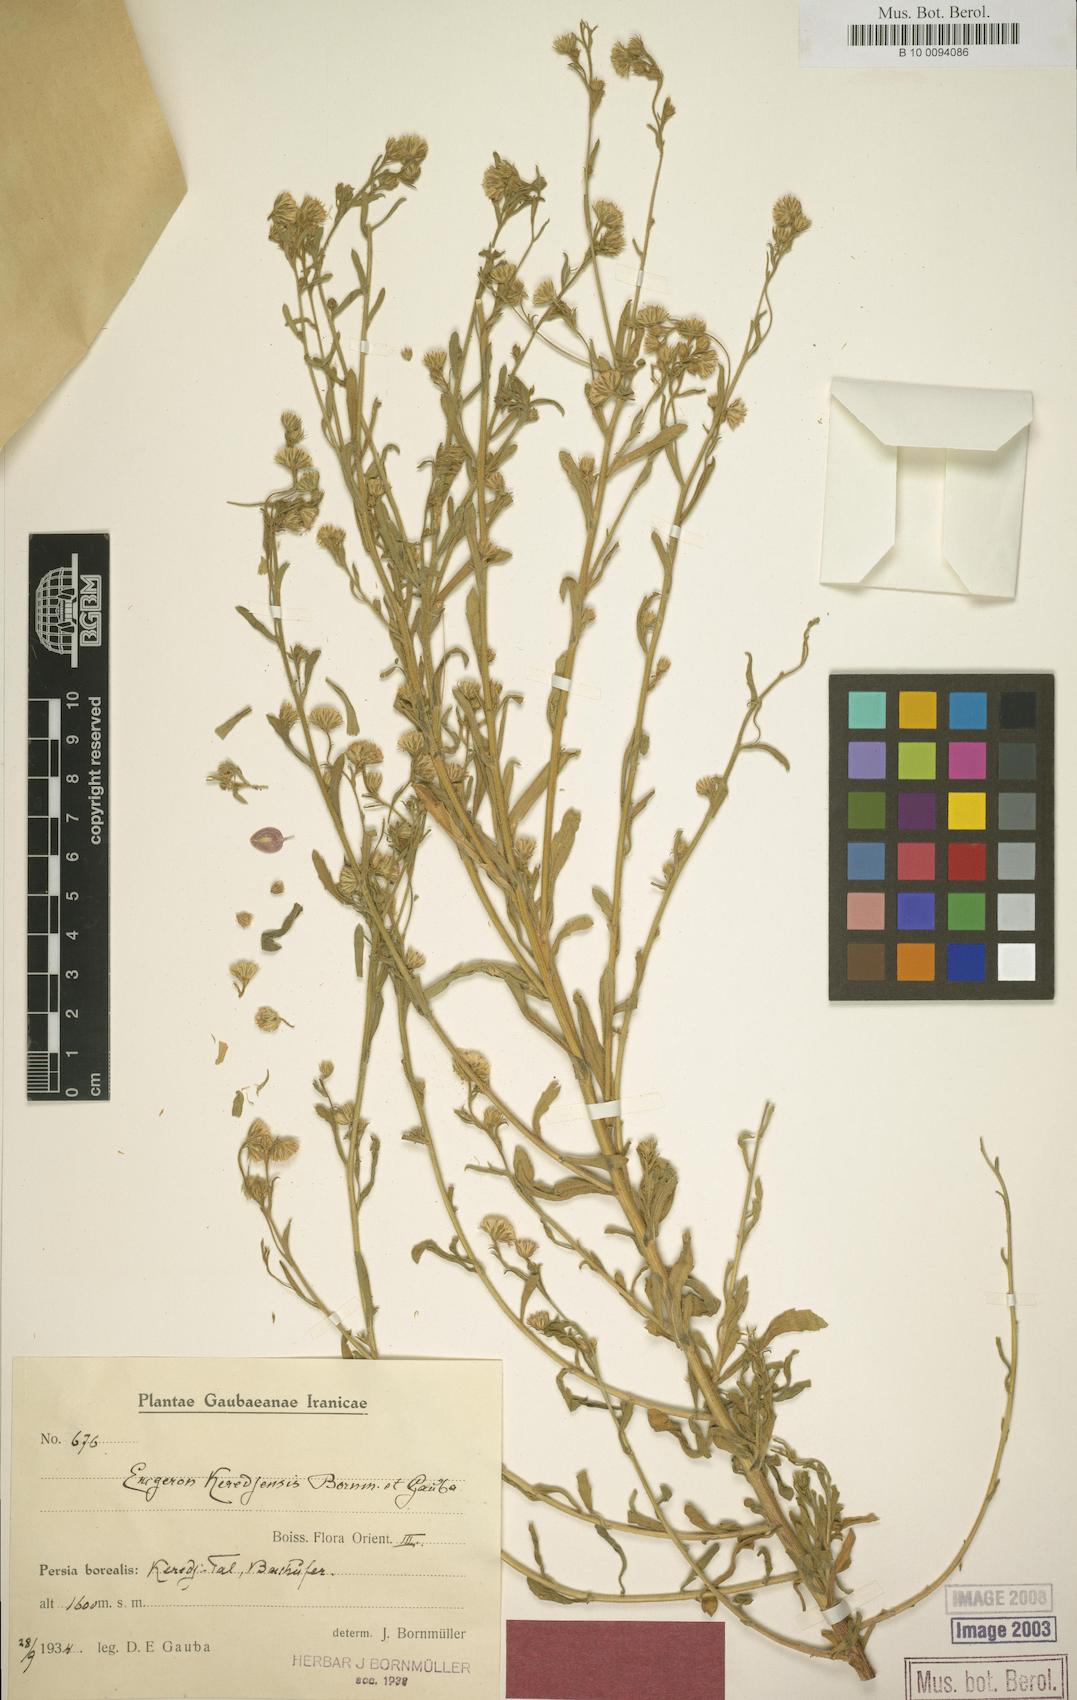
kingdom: Plantae
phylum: Tracheophyta
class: Magnoliopsida
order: Asterales
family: Asteraceae
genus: Chamaegeron
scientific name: Chamaegeron keredjensis
